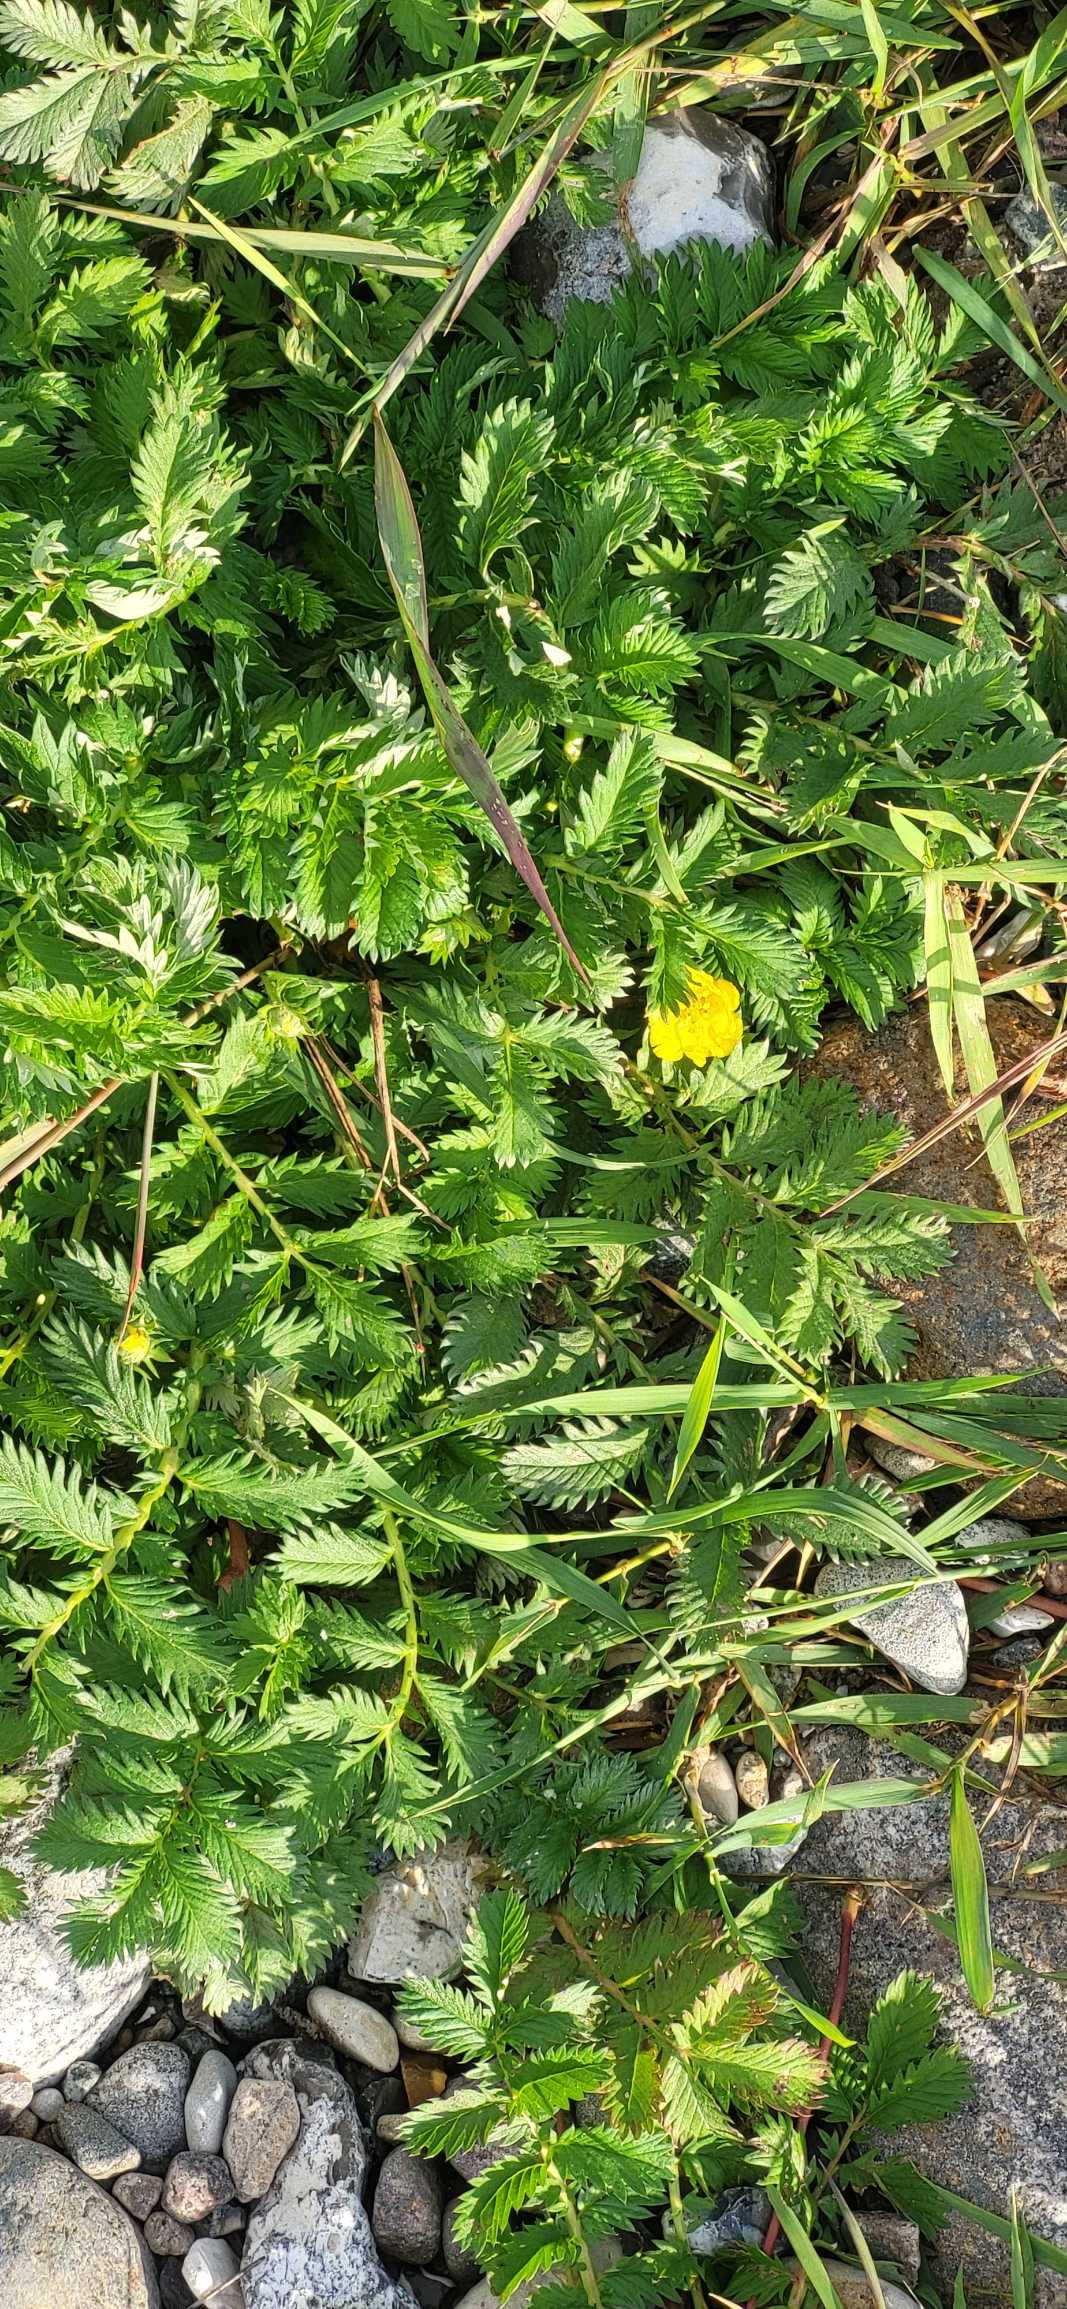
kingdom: Plantae
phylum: Tracheophyta
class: Magnoliopsida
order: Rosales
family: Rosaceae
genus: Argentina
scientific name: Argentina anserina
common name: Gåsepotentil
